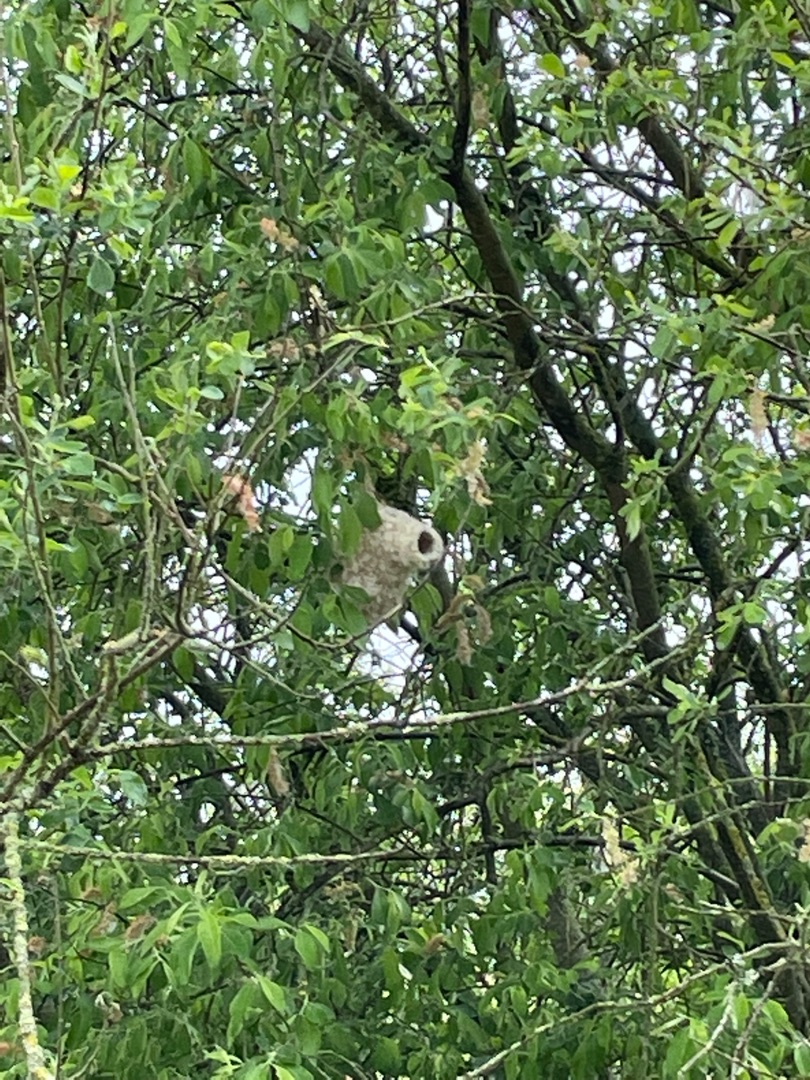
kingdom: Animalia
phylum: Chordata
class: Aves
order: Passeriformes
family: Remizidae
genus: Remiz
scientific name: Remiz pendulinus
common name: Pungmejse
